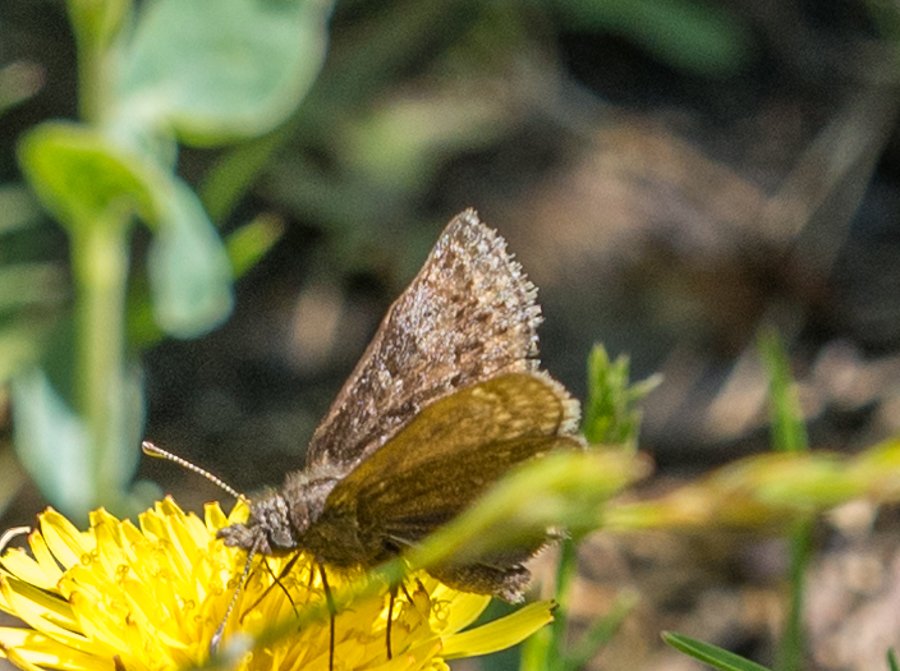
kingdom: Animalia
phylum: Arthropoda
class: Insecta
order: Lepidoptera
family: Hesperiidae
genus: Erynnis
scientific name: Erynnis icelus
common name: Dreamy Duskywing
